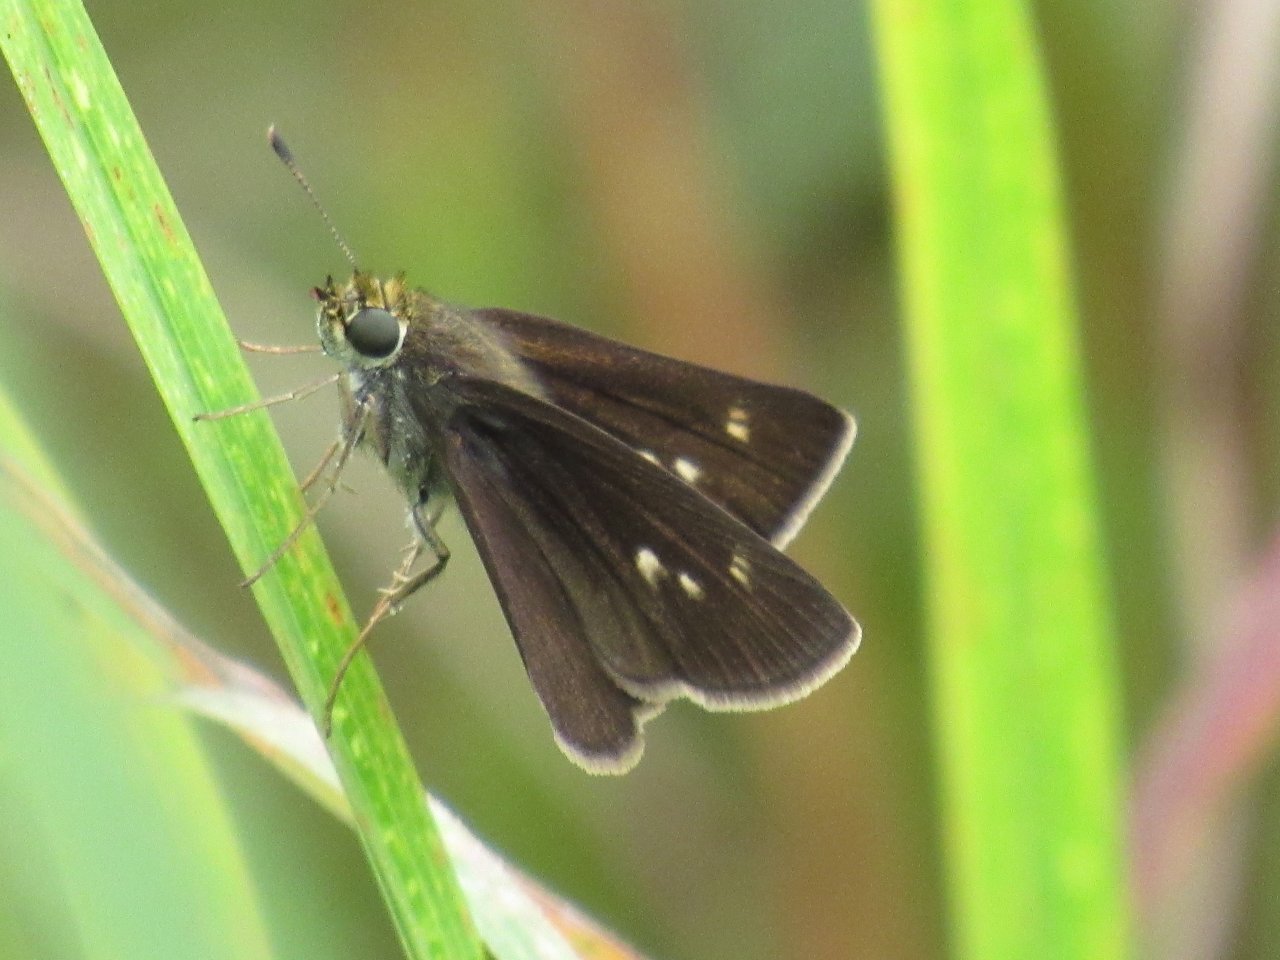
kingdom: Animalia
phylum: Arthropoda
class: Insecta
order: Lepidoptera
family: Hesperiidae
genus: Euphyes
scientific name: Euphyes vestris
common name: Dun Skipper
